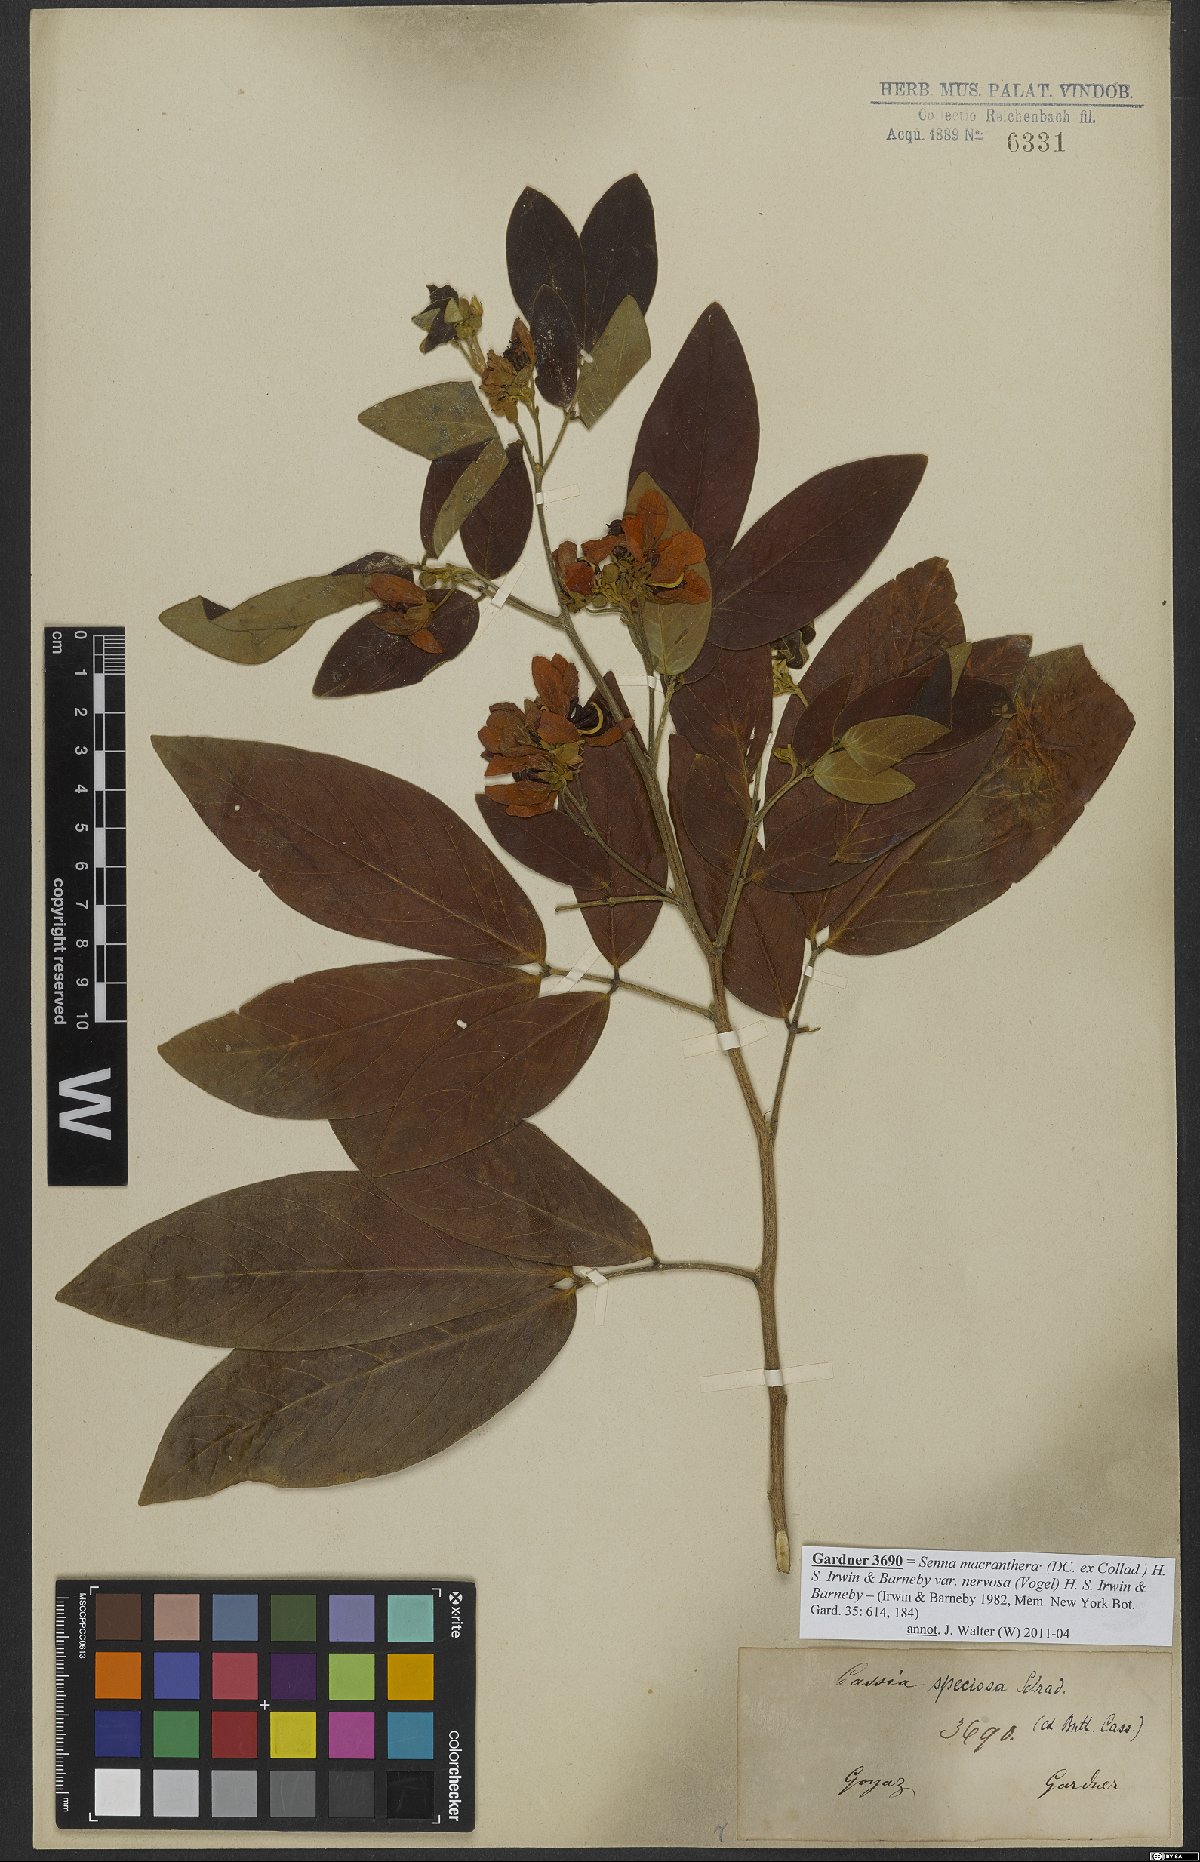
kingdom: Plantae
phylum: Tracheophyta
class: Magnoliopsida
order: Fabales
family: Fabaceae
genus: Senna
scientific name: Senna macranthera
